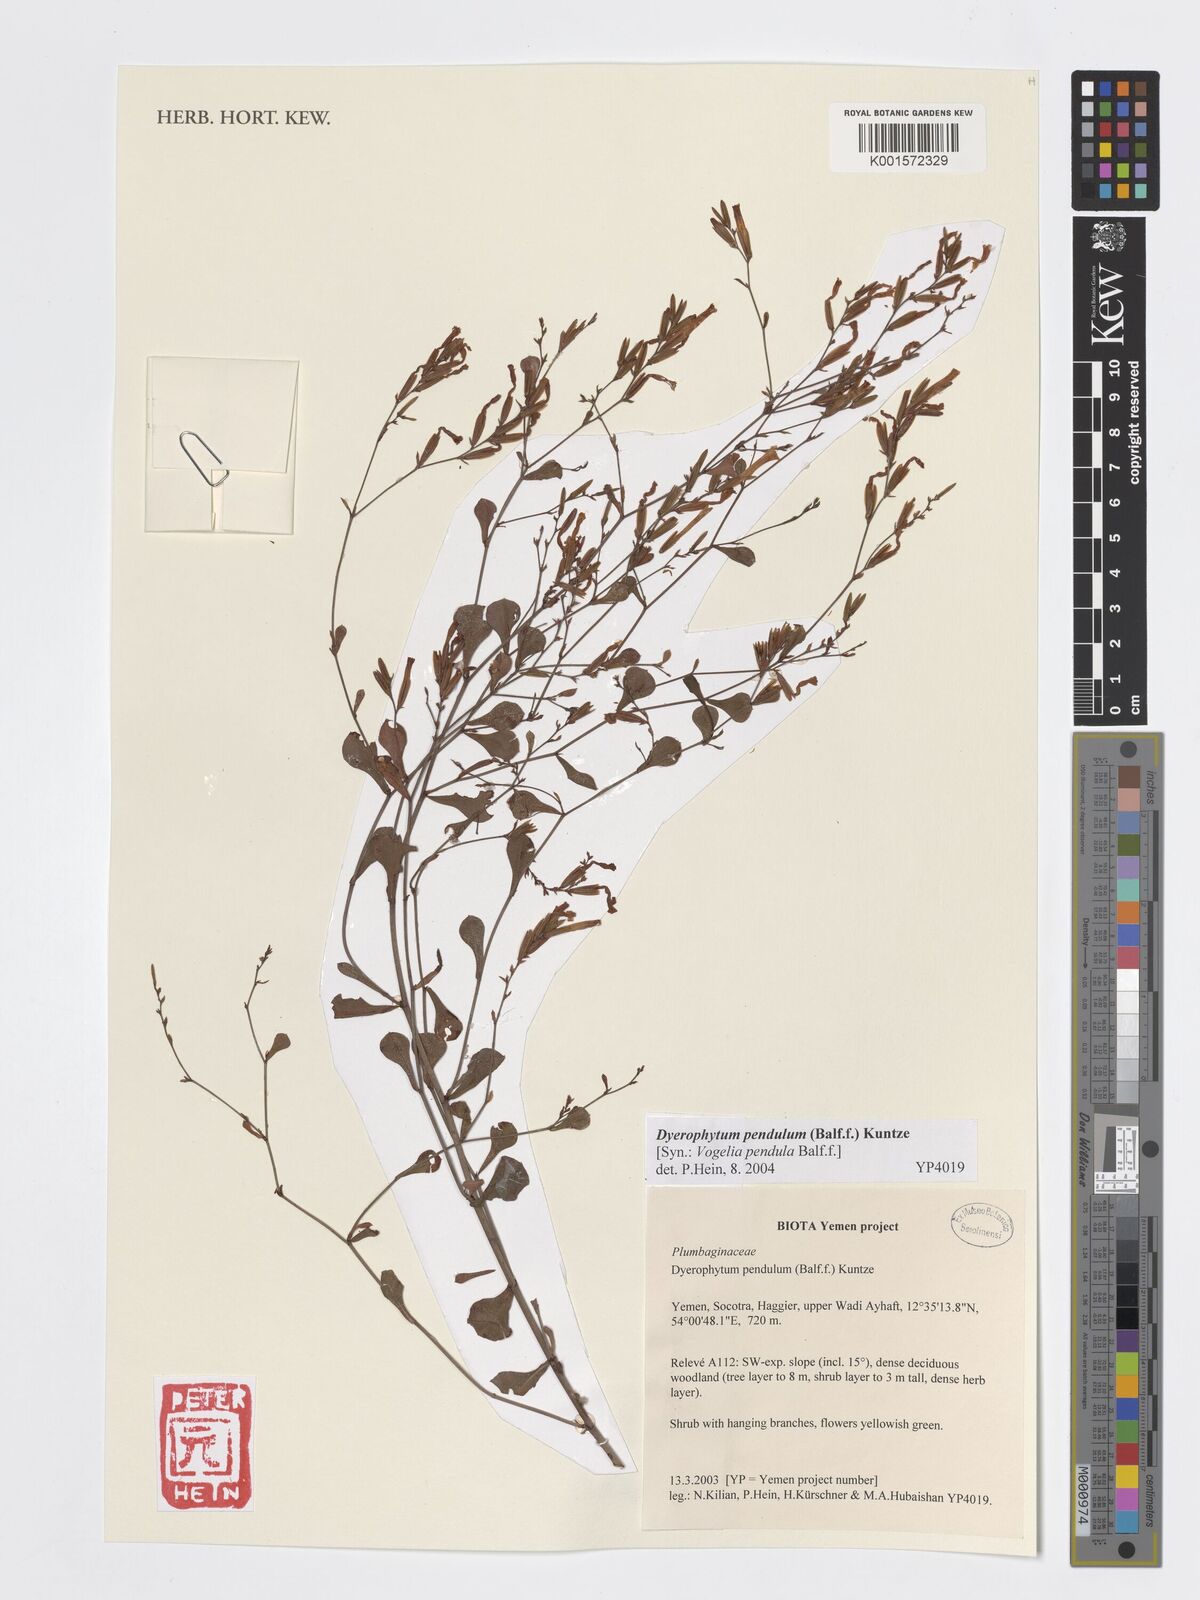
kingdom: Plantae
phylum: Tracheophyta
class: Magnoliopsida
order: Caryophyllales
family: Plumbaginaceae
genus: Dyerophytum
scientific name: Dyerophytum pendulum
